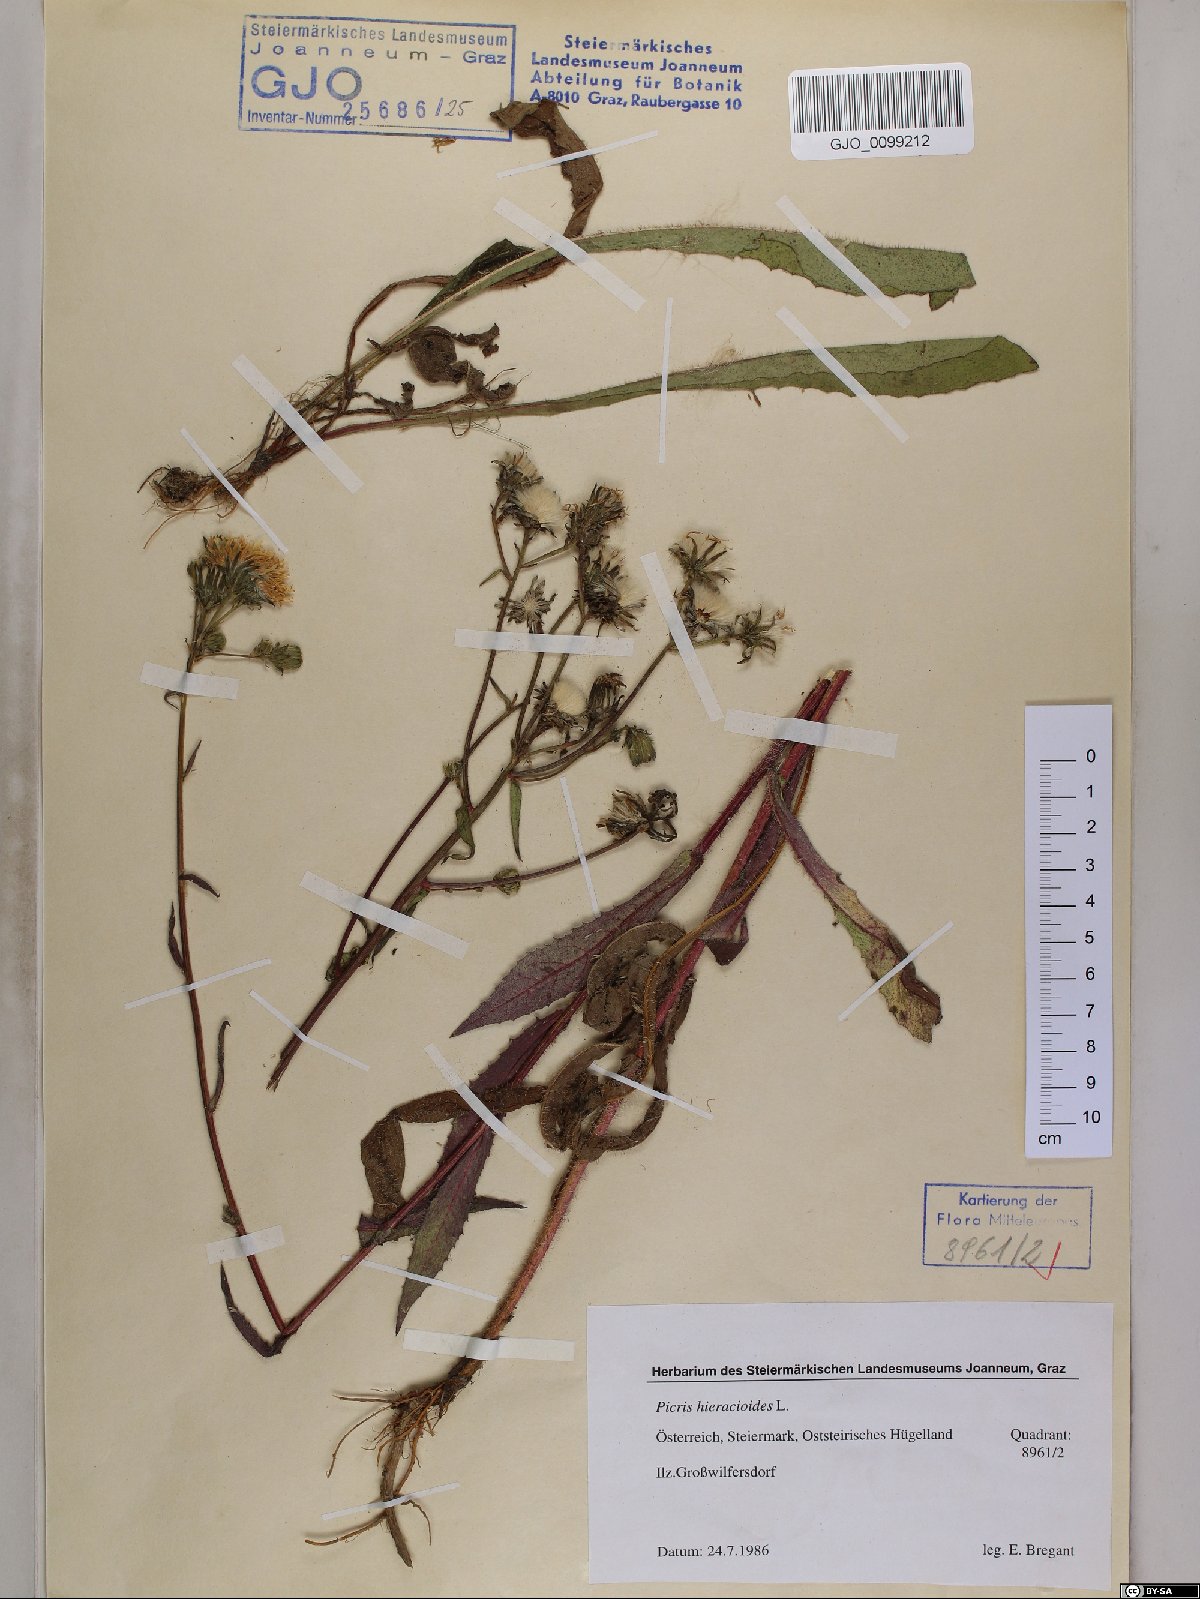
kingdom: Plantae
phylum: Tracheophyta
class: Magnoliopsida
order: Asterales
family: Asteraceae
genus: Picris
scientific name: Picris hieracioides
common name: Hawkweed oxtongue
